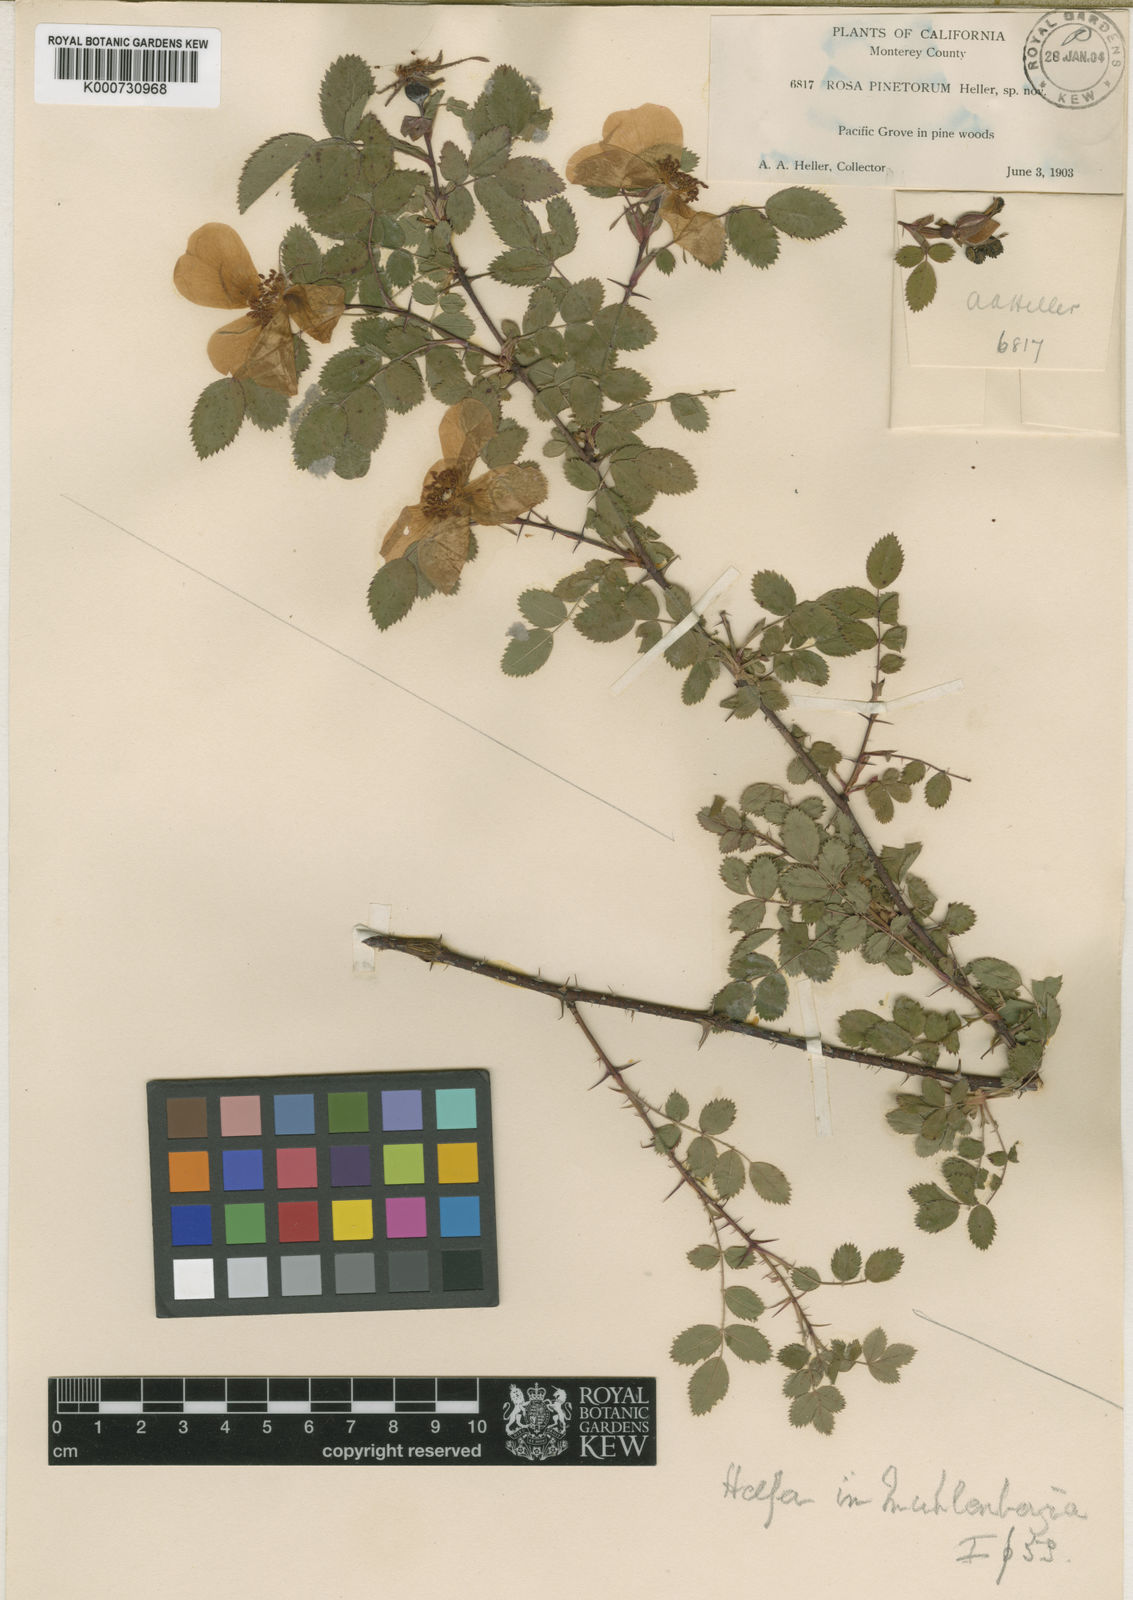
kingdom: Plantae
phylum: Tracheophyta
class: Magnoliopsida
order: Rosales
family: Rosaceae
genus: Rosa
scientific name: Rosa pinetorum
